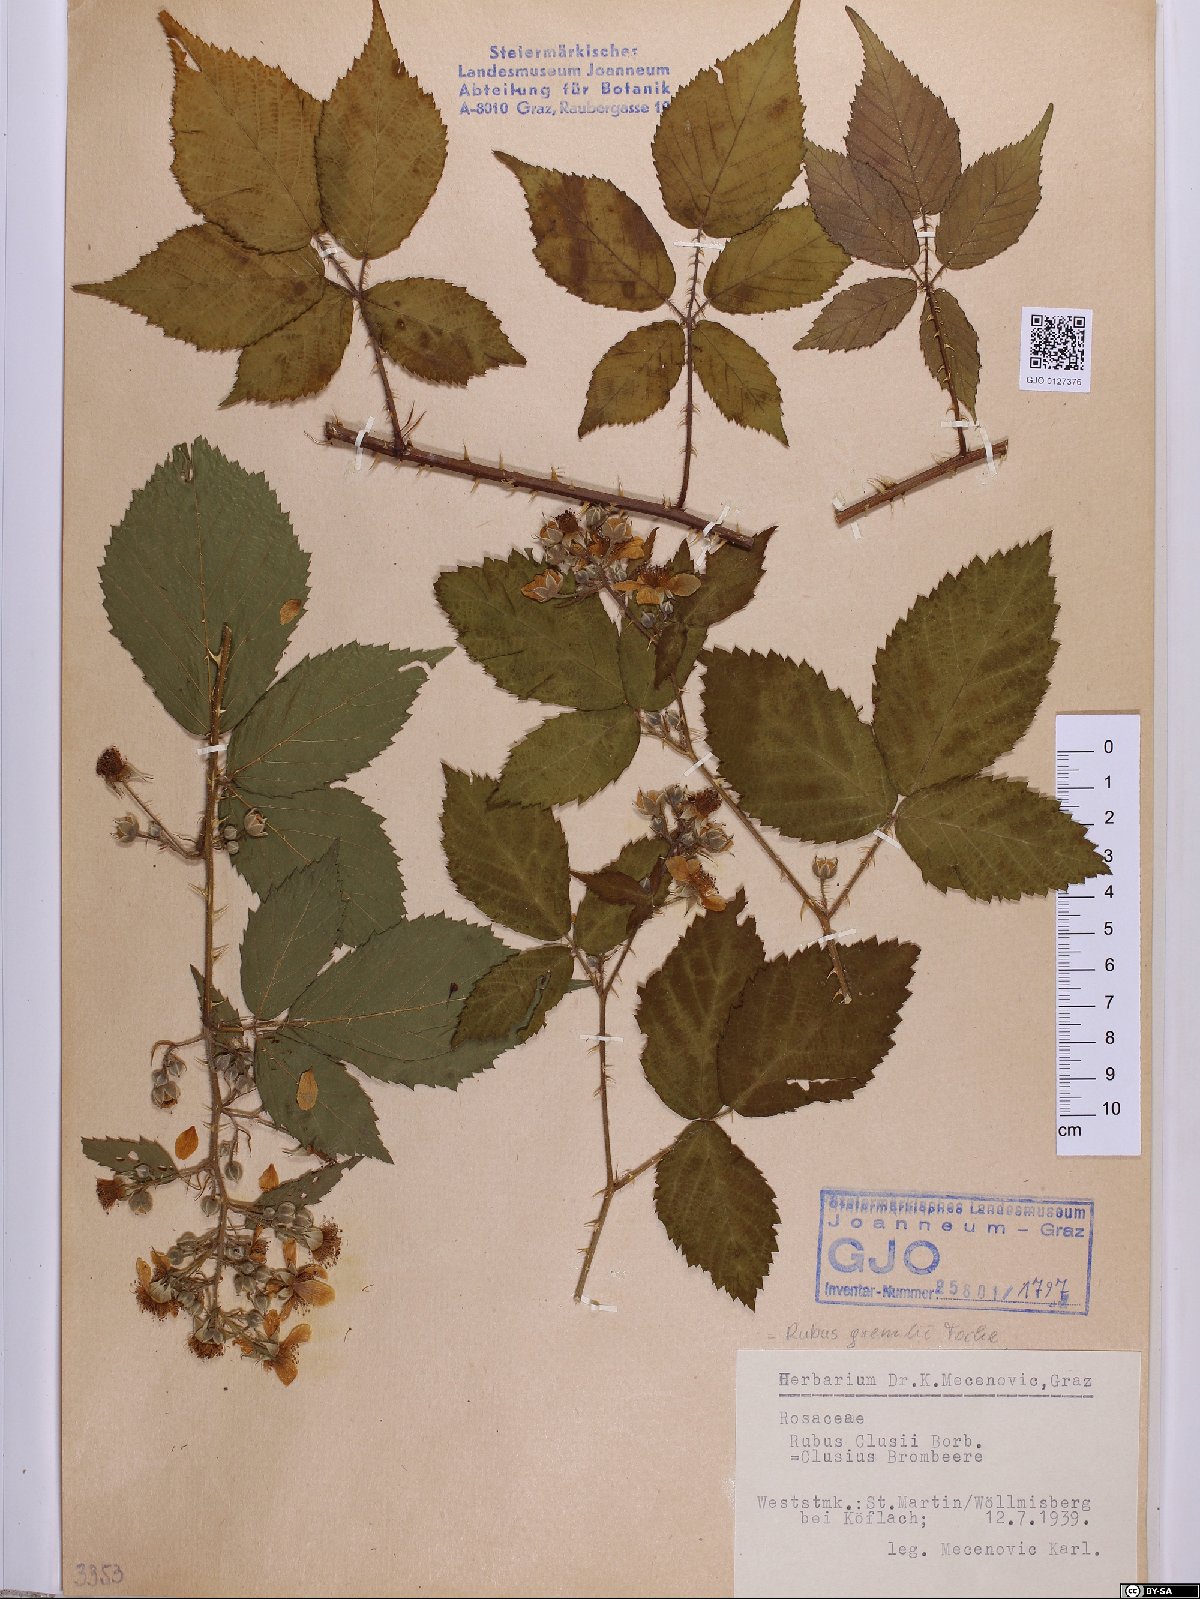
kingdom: Plantae
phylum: Tracheophyta
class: Magnoliopsida
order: Rosales
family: Rosaceae
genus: Rubus
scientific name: Rubus clusii
